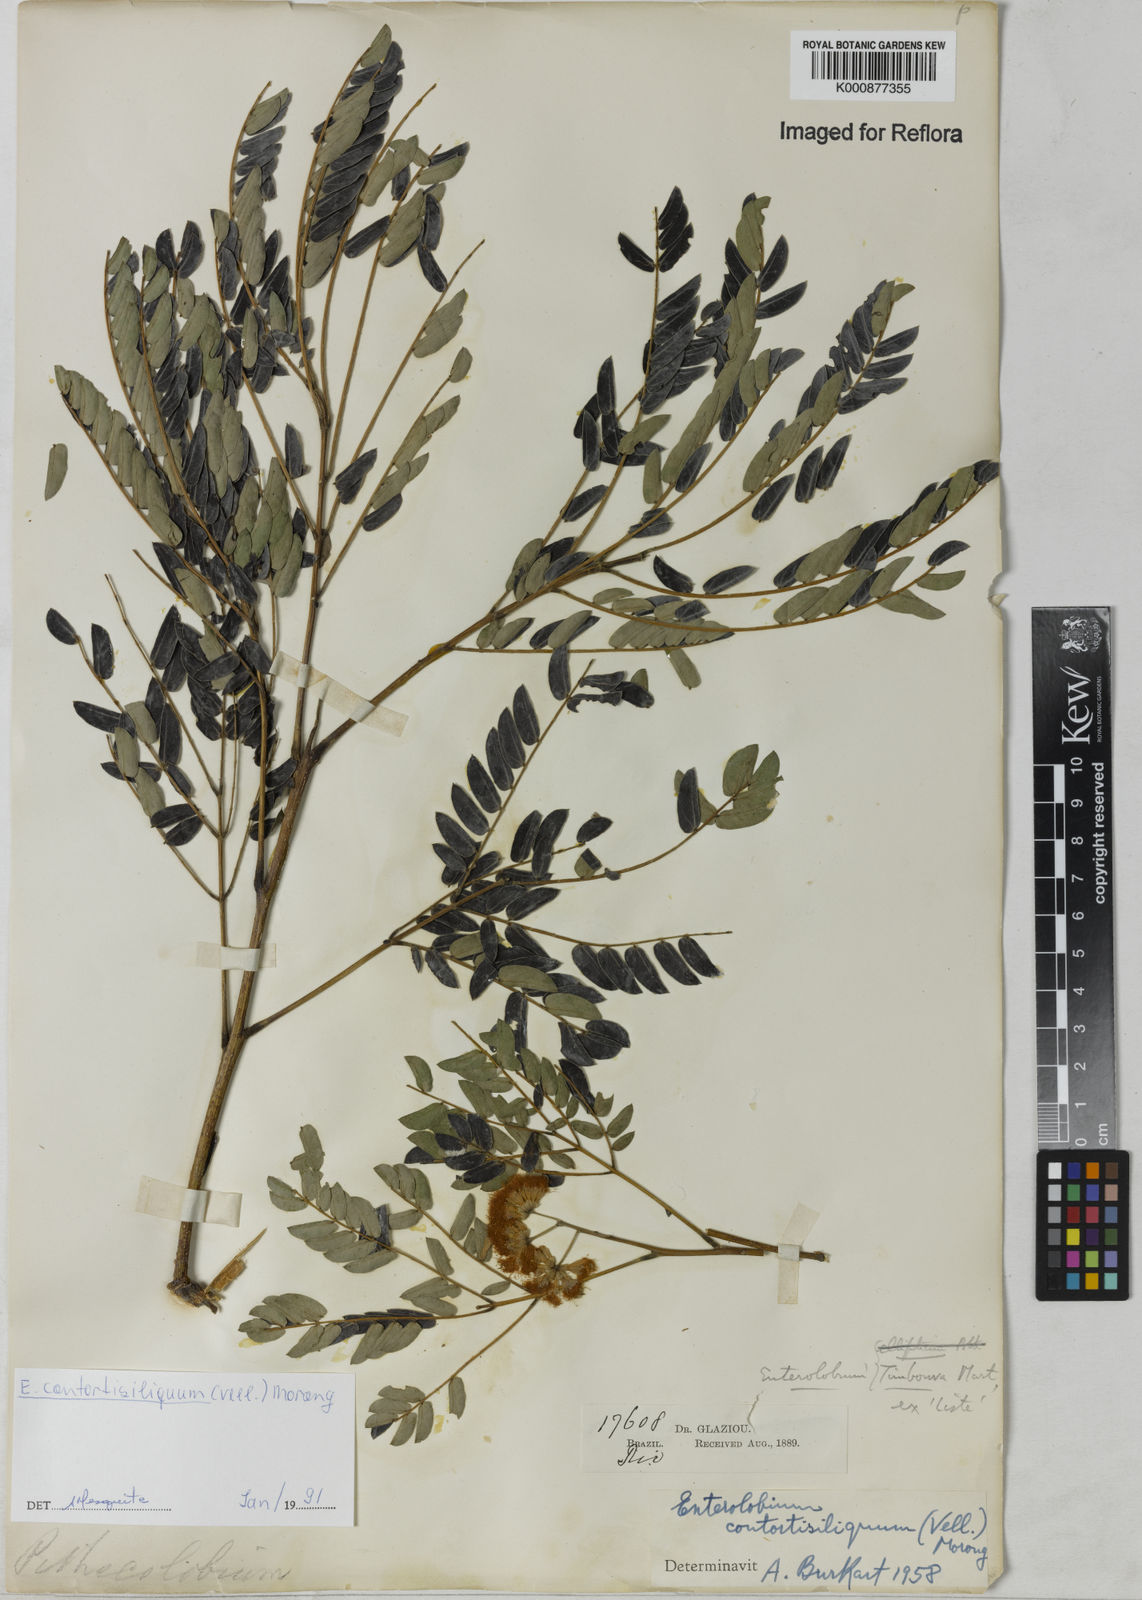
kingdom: Plantae
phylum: Tracheophyta
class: Magnoliopsida
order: Fabales
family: Fabaceae
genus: Enterolobium
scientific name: Enterolobium timbouva
